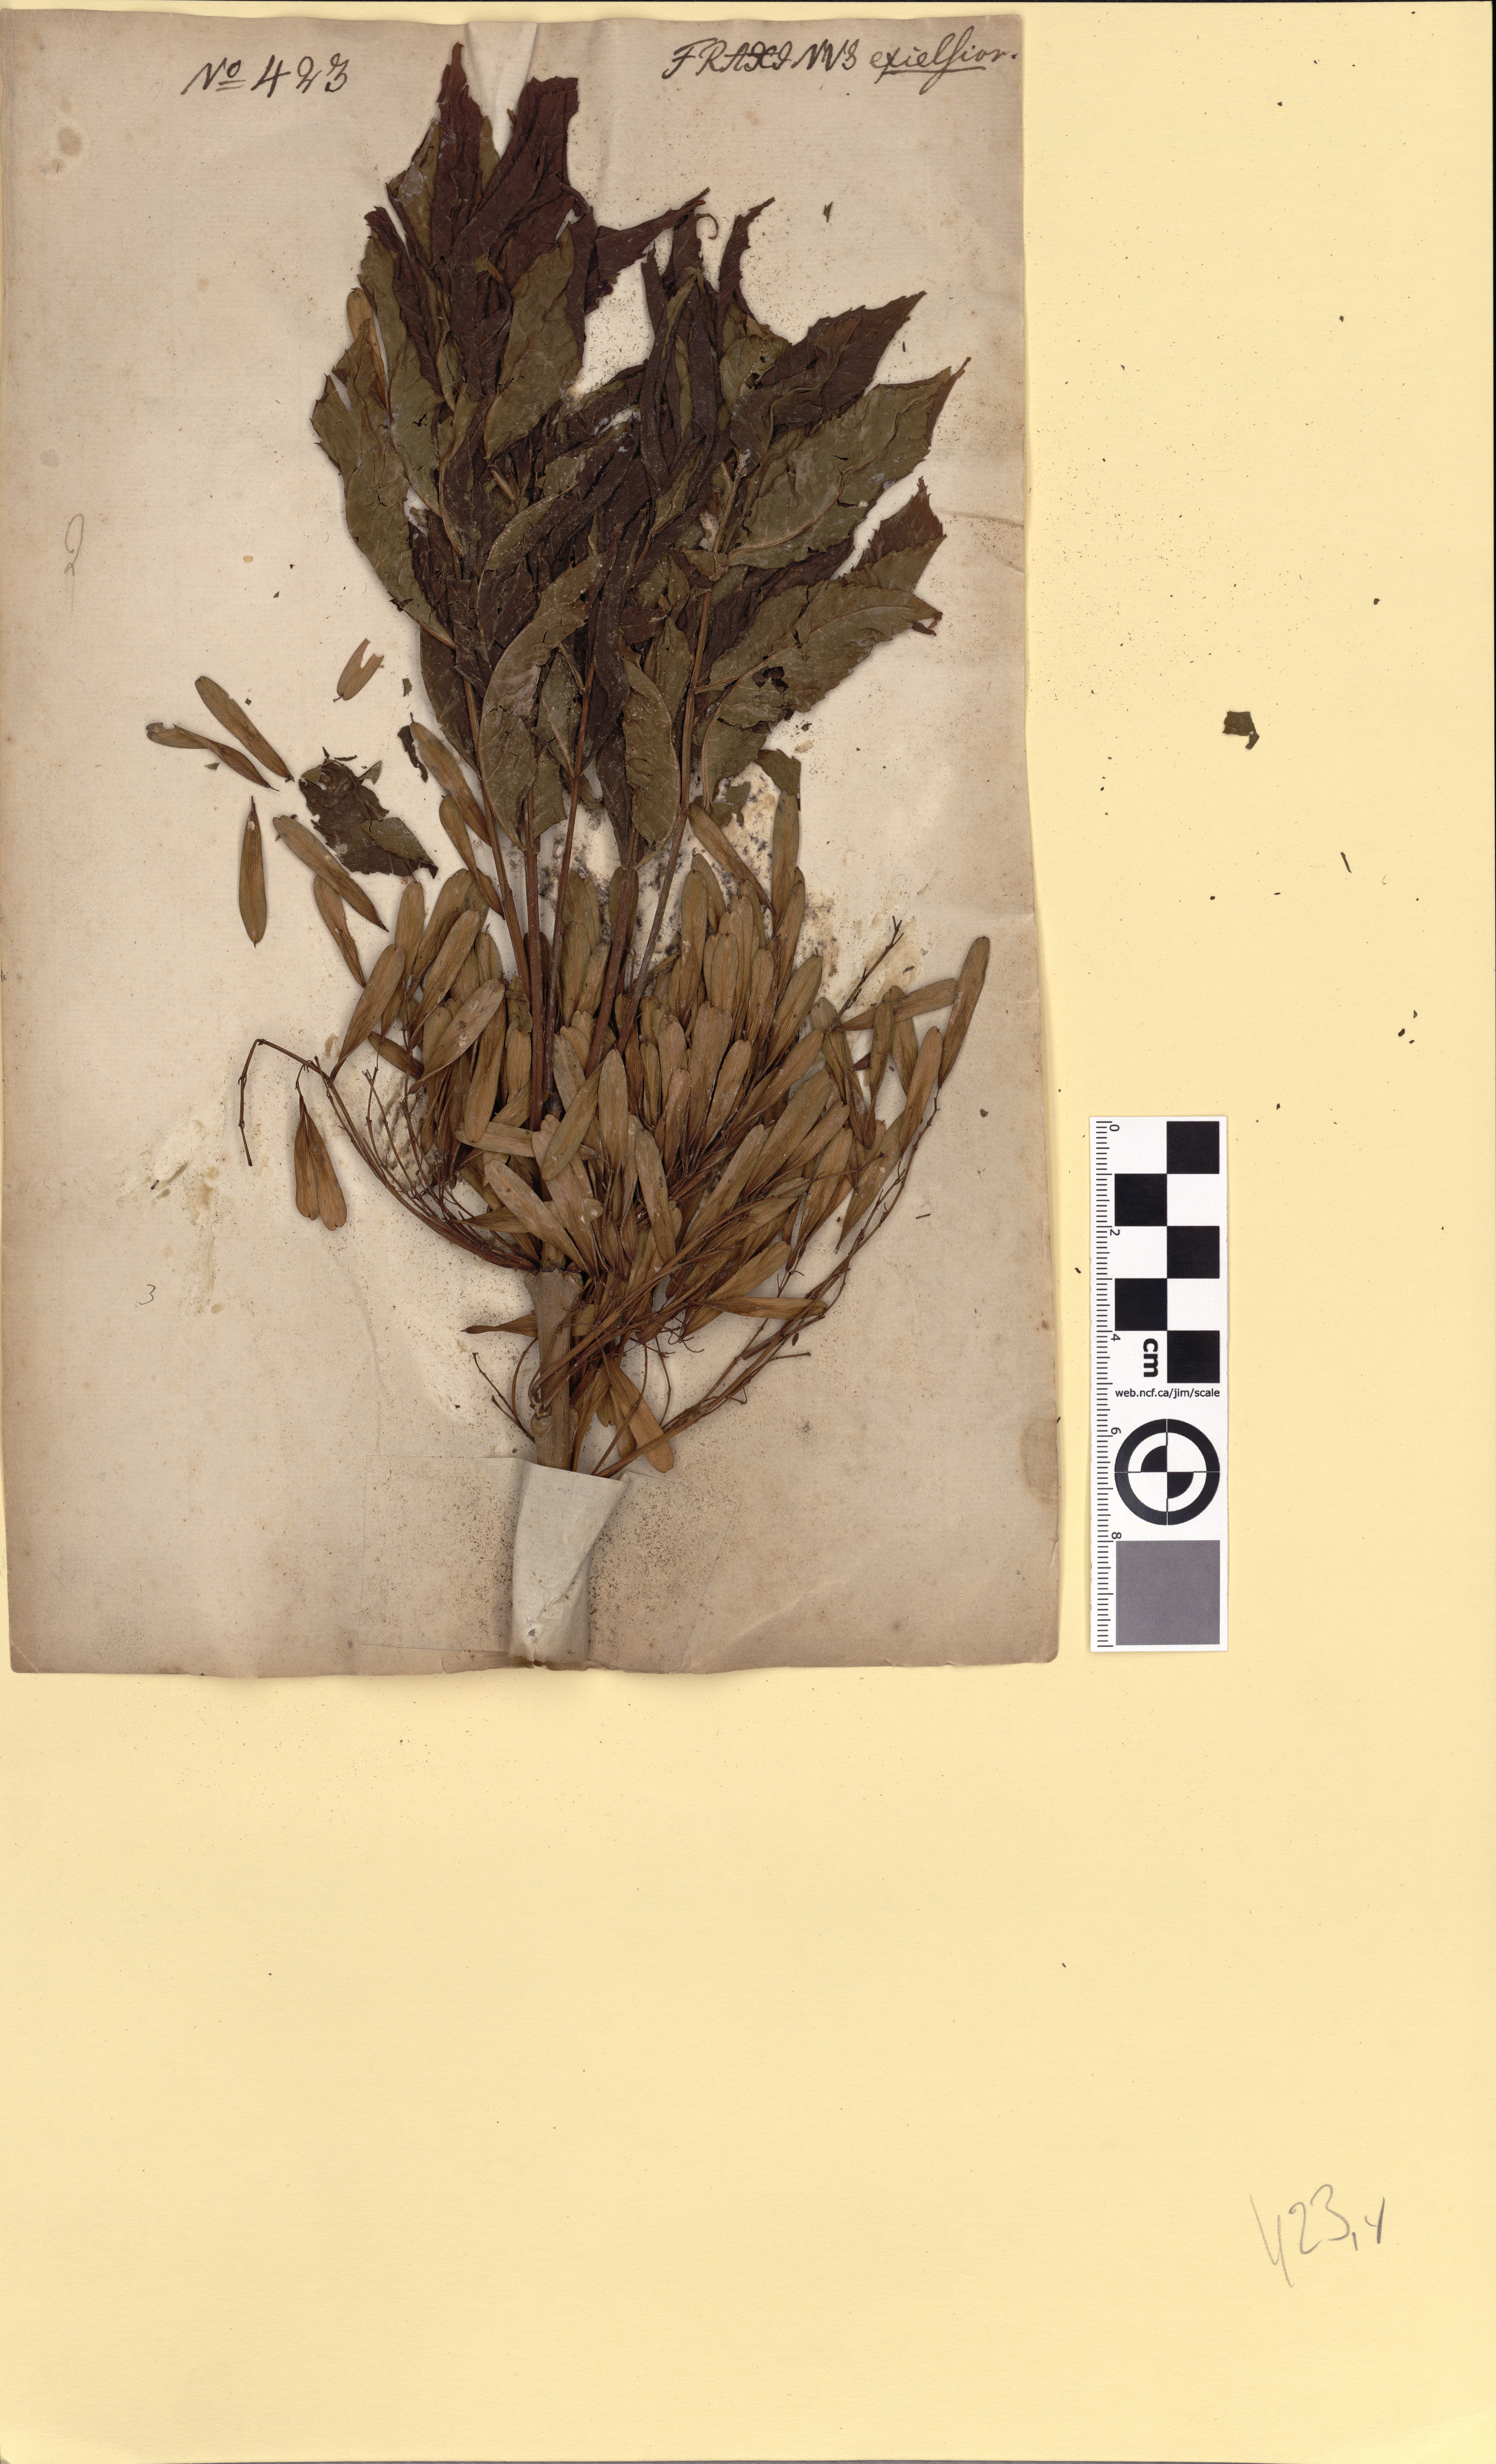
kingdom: Plantae
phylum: Tracheophyta
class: Magnoliopsida
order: Lamiales
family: Oleaceae
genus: Fraxinus
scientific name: Fraxinus excelsior
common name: European ash
